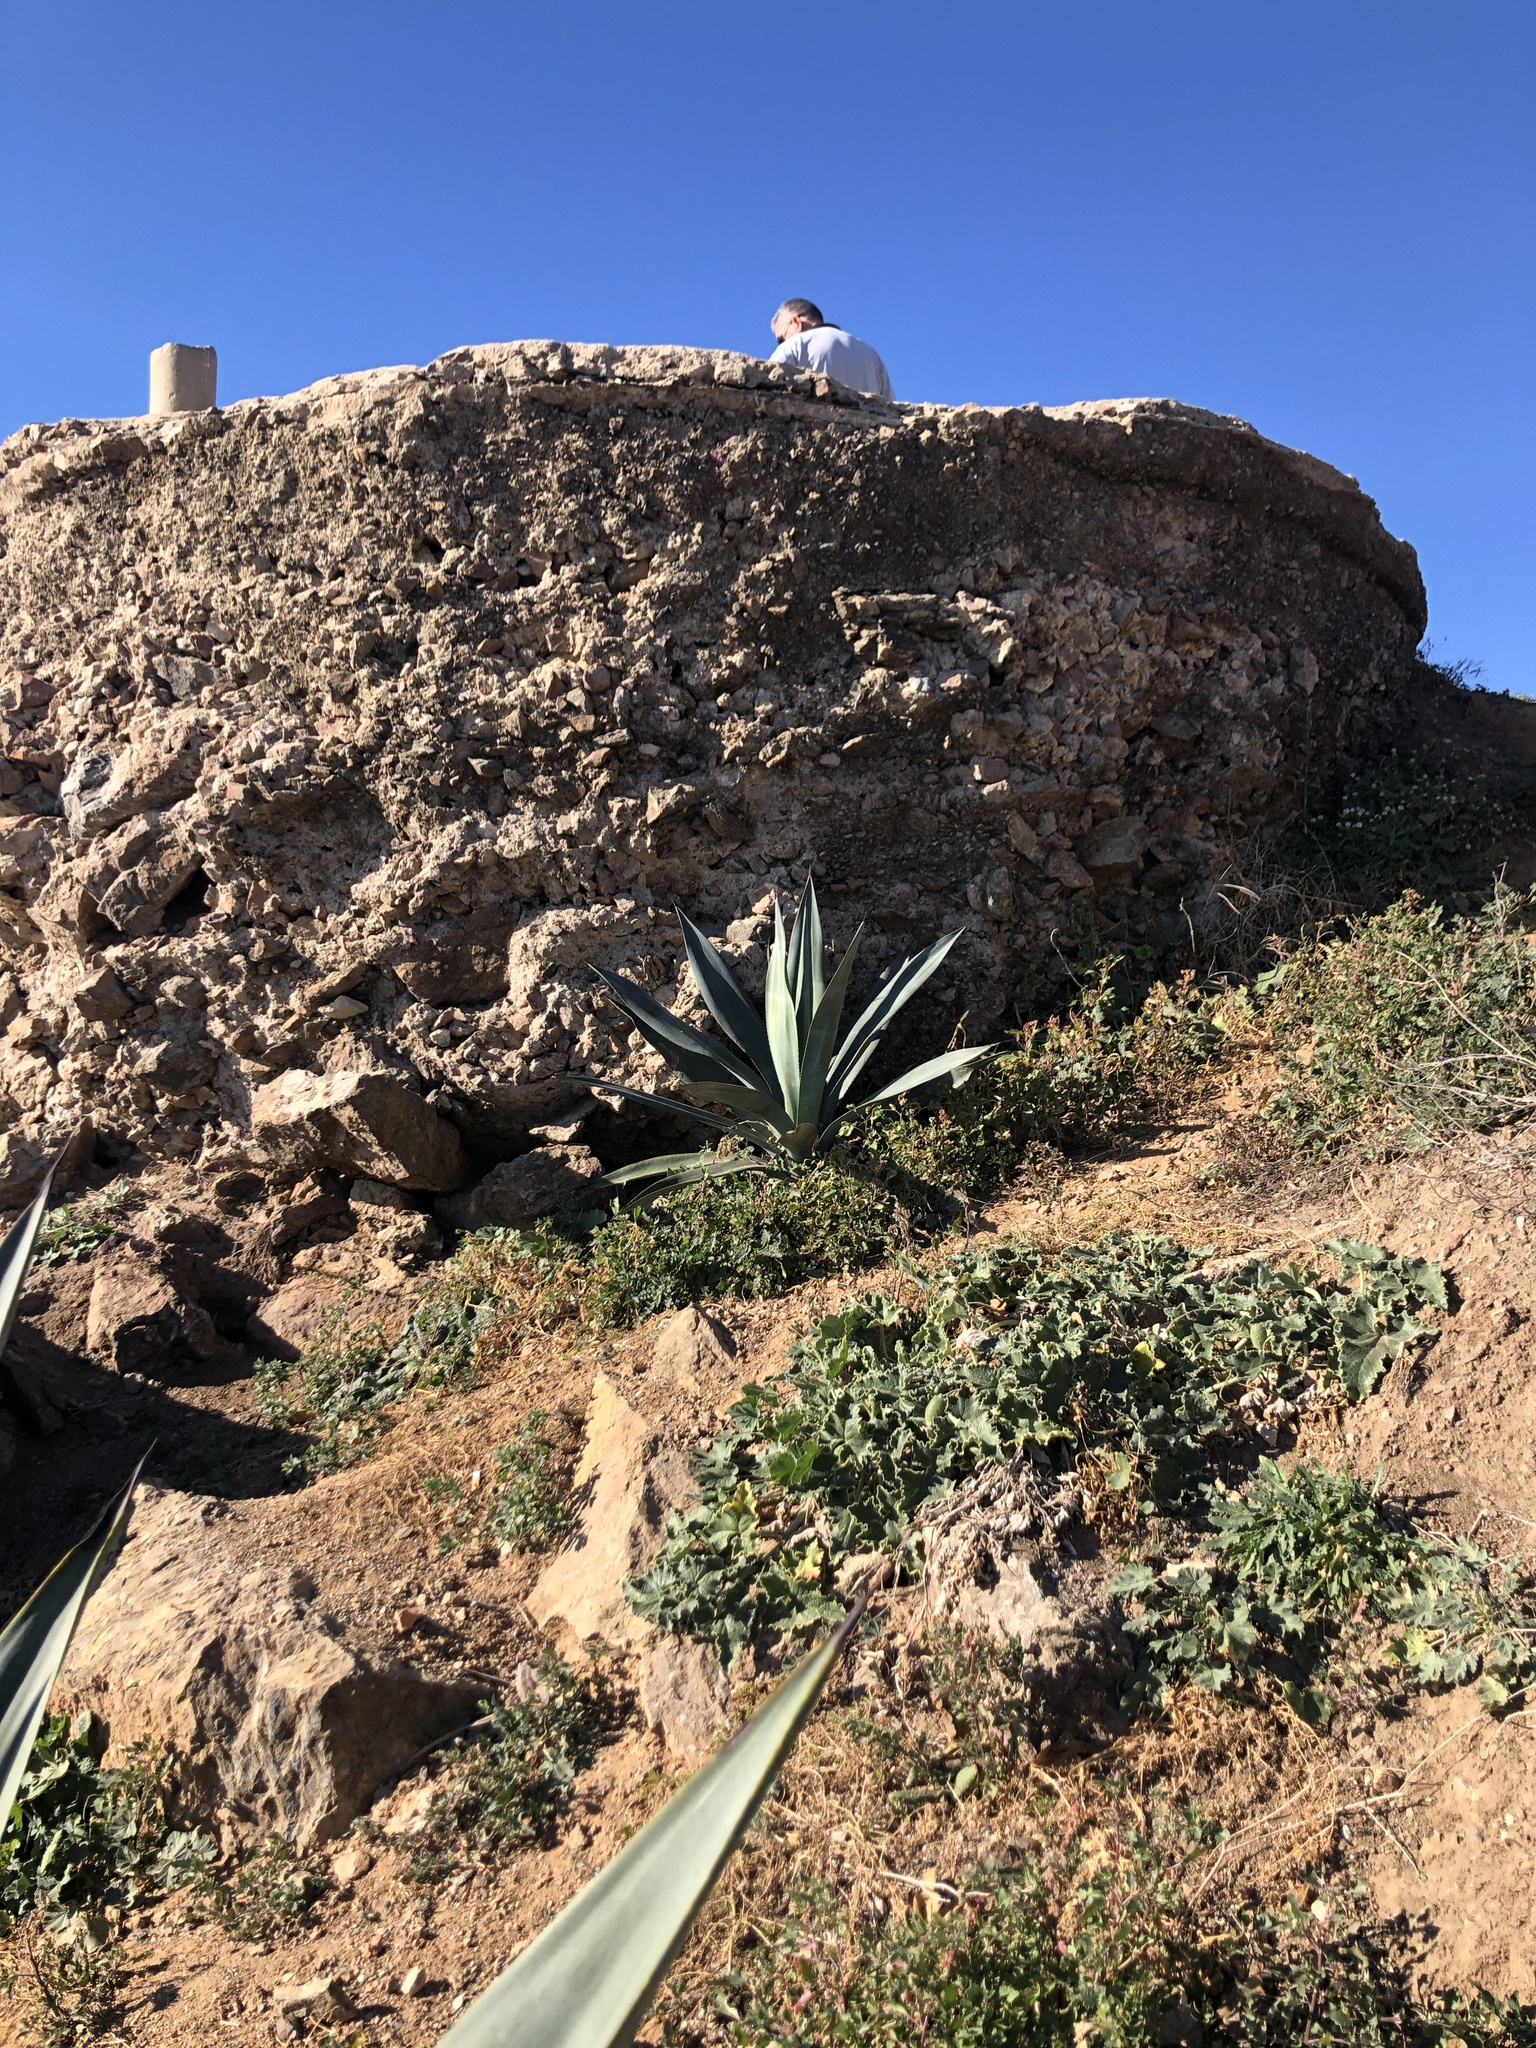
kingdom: Plantae
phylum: Tracheophyta
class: Liliopsida
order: Asparagales
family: Asparagaceae
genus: Agave
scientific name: Agave americana
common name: Centuryplant
